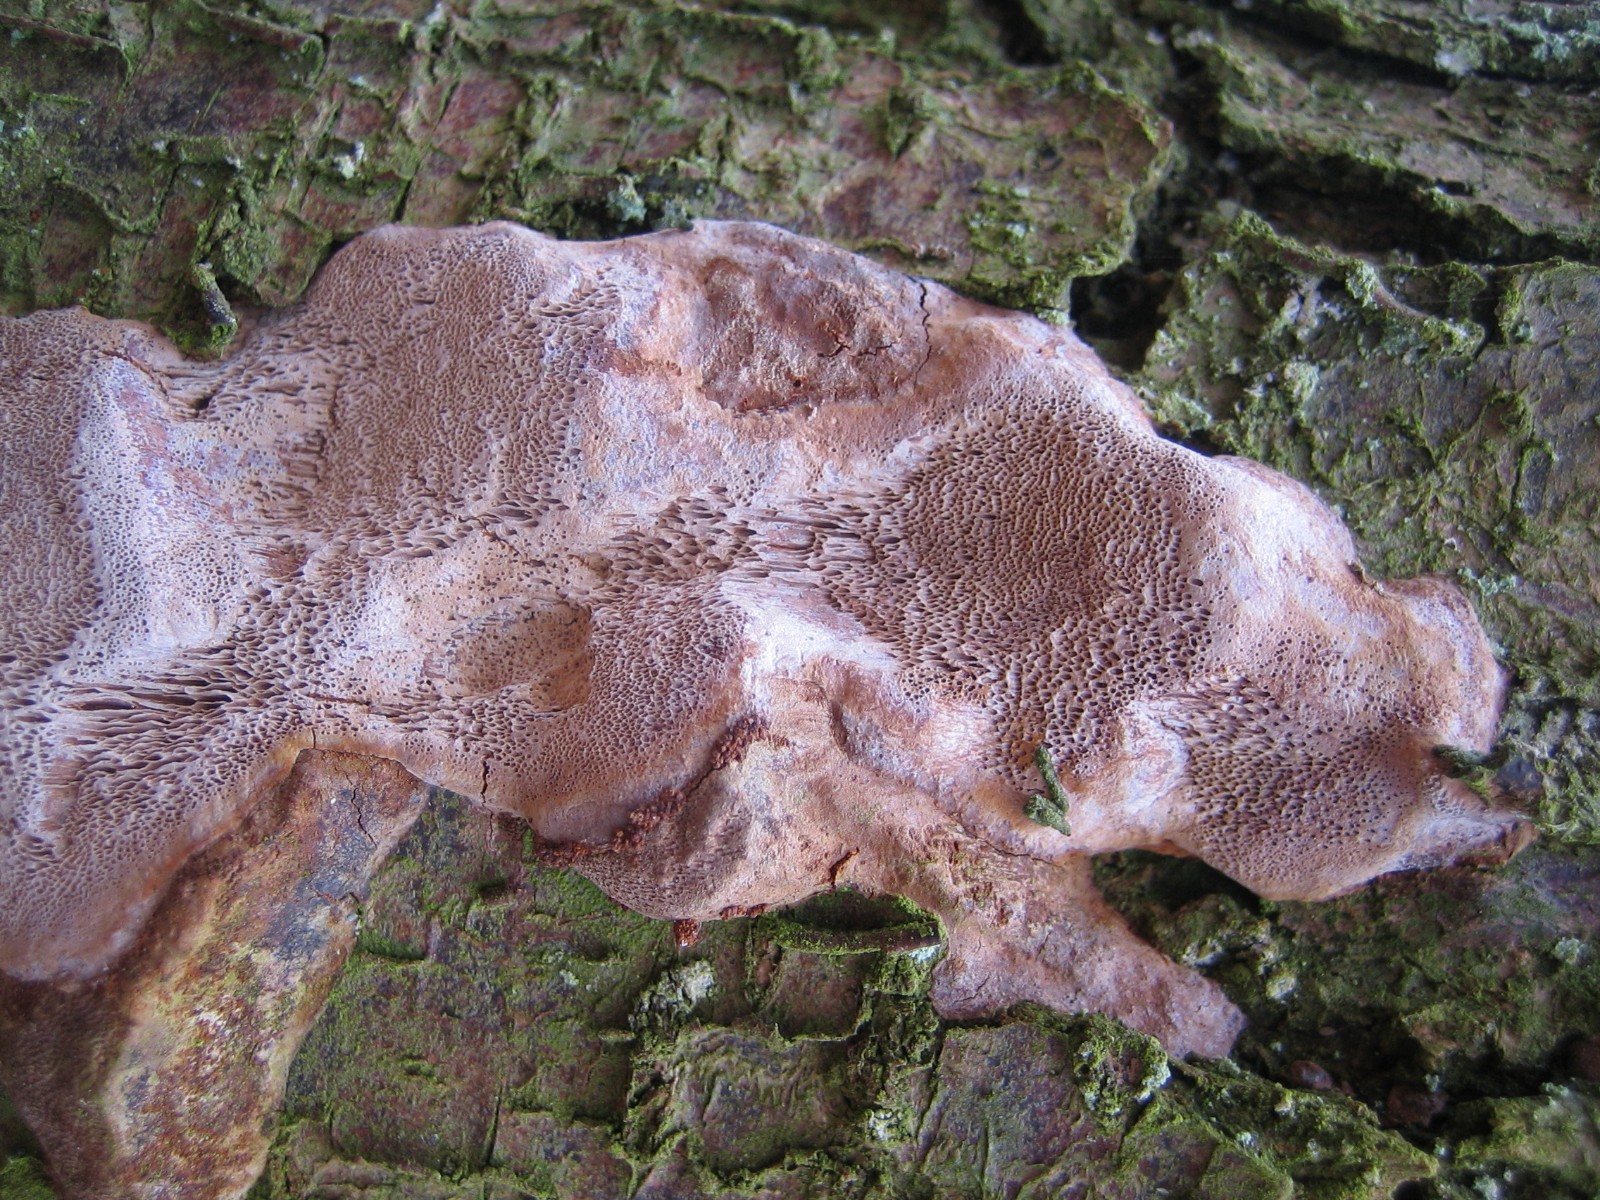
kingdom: Fungi
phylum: Basidiomycota
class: Agaricomycetes
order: Hymenochaetales
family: Hymenochaetaceae
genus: Phellinus
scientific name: Phellinus pomaceus
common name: blomme-ildporesvamp
